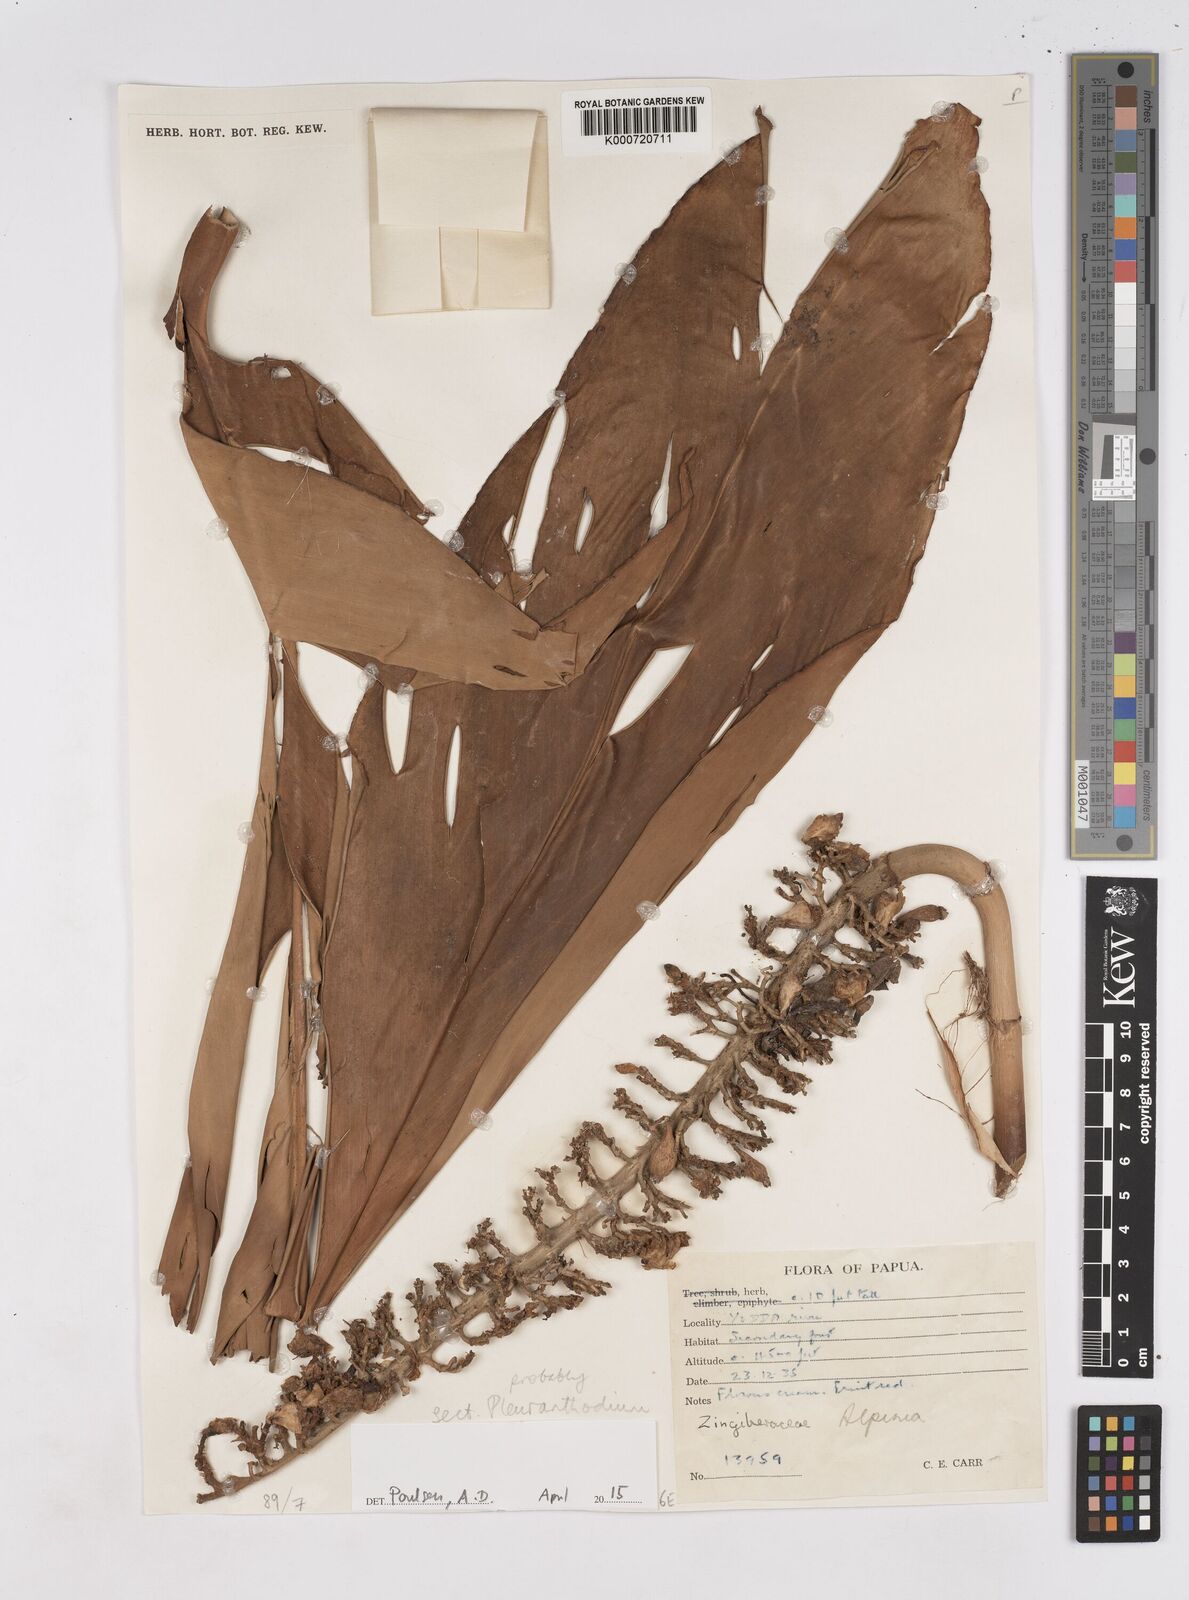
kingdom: Plantae
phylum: Tracheophyta
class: Liliopsida
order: Zingiberales
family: Zingiberaceae
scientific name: Zingiberaceae
